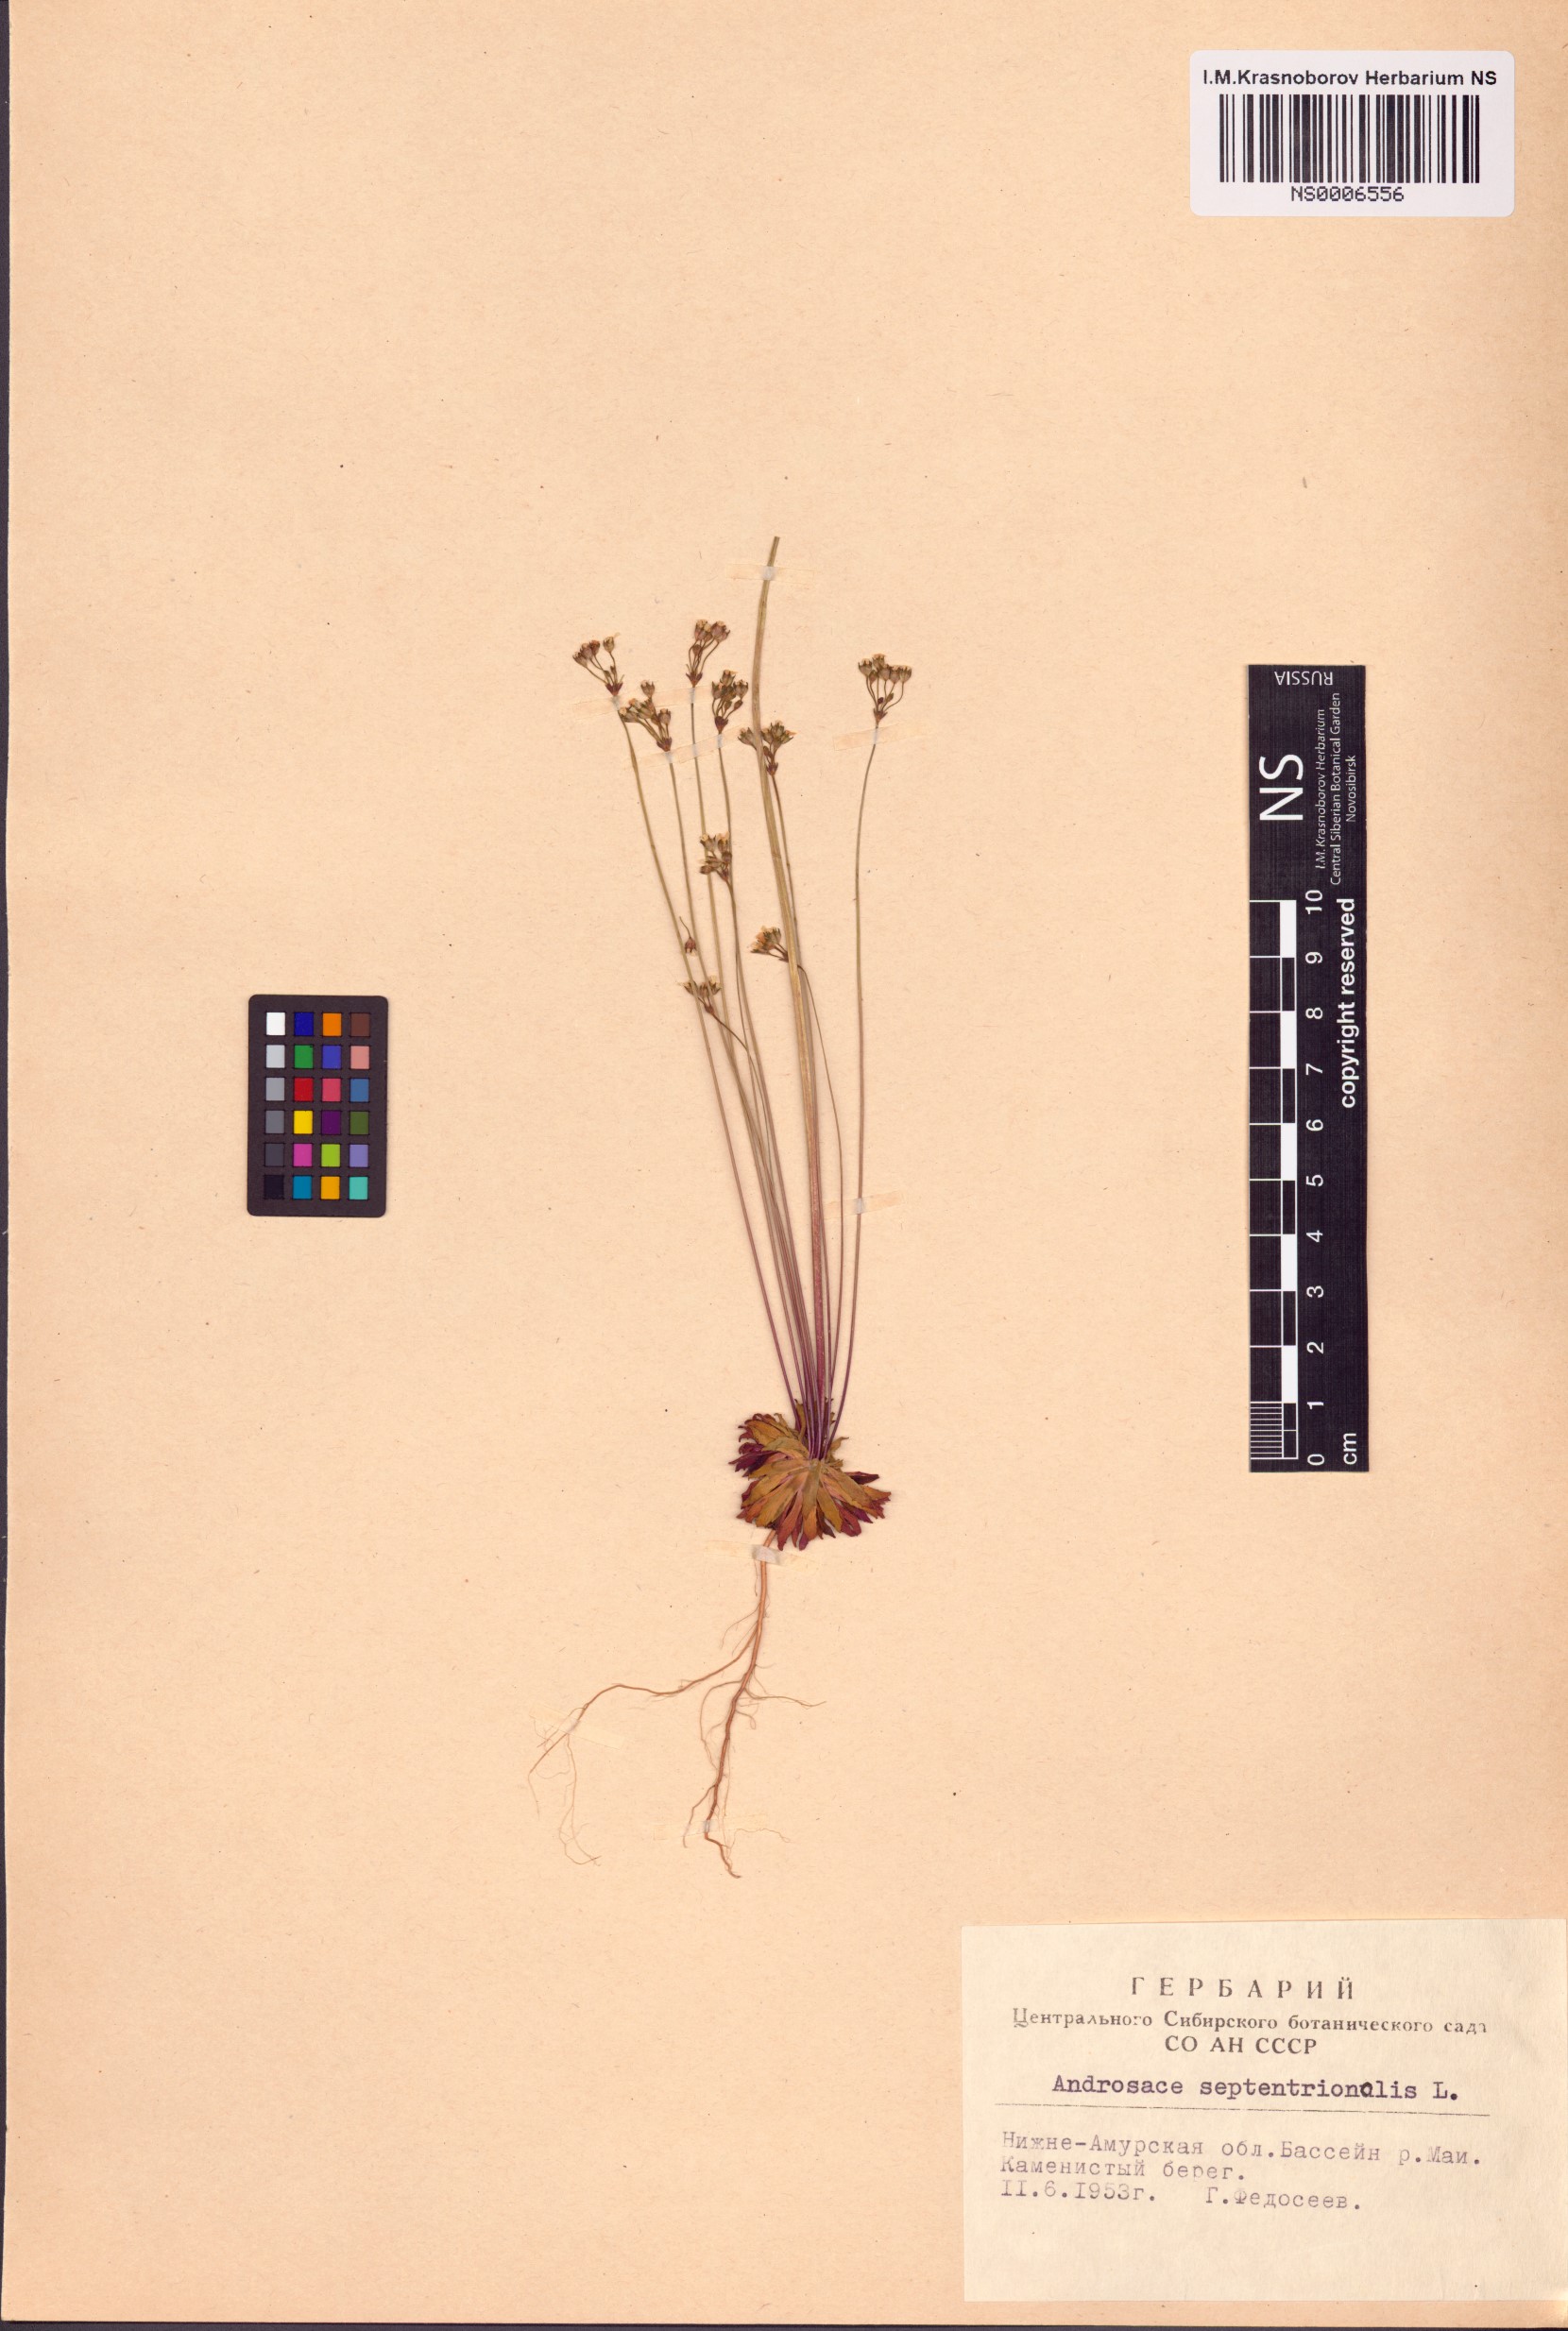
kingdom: Plantae
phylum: Tracheophyta
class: Magnoliopsida
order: Ericales
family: Primulaceae
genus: Androsace
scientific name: Androsace septentrionalis
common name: Hairy northern fairy-candelabra
